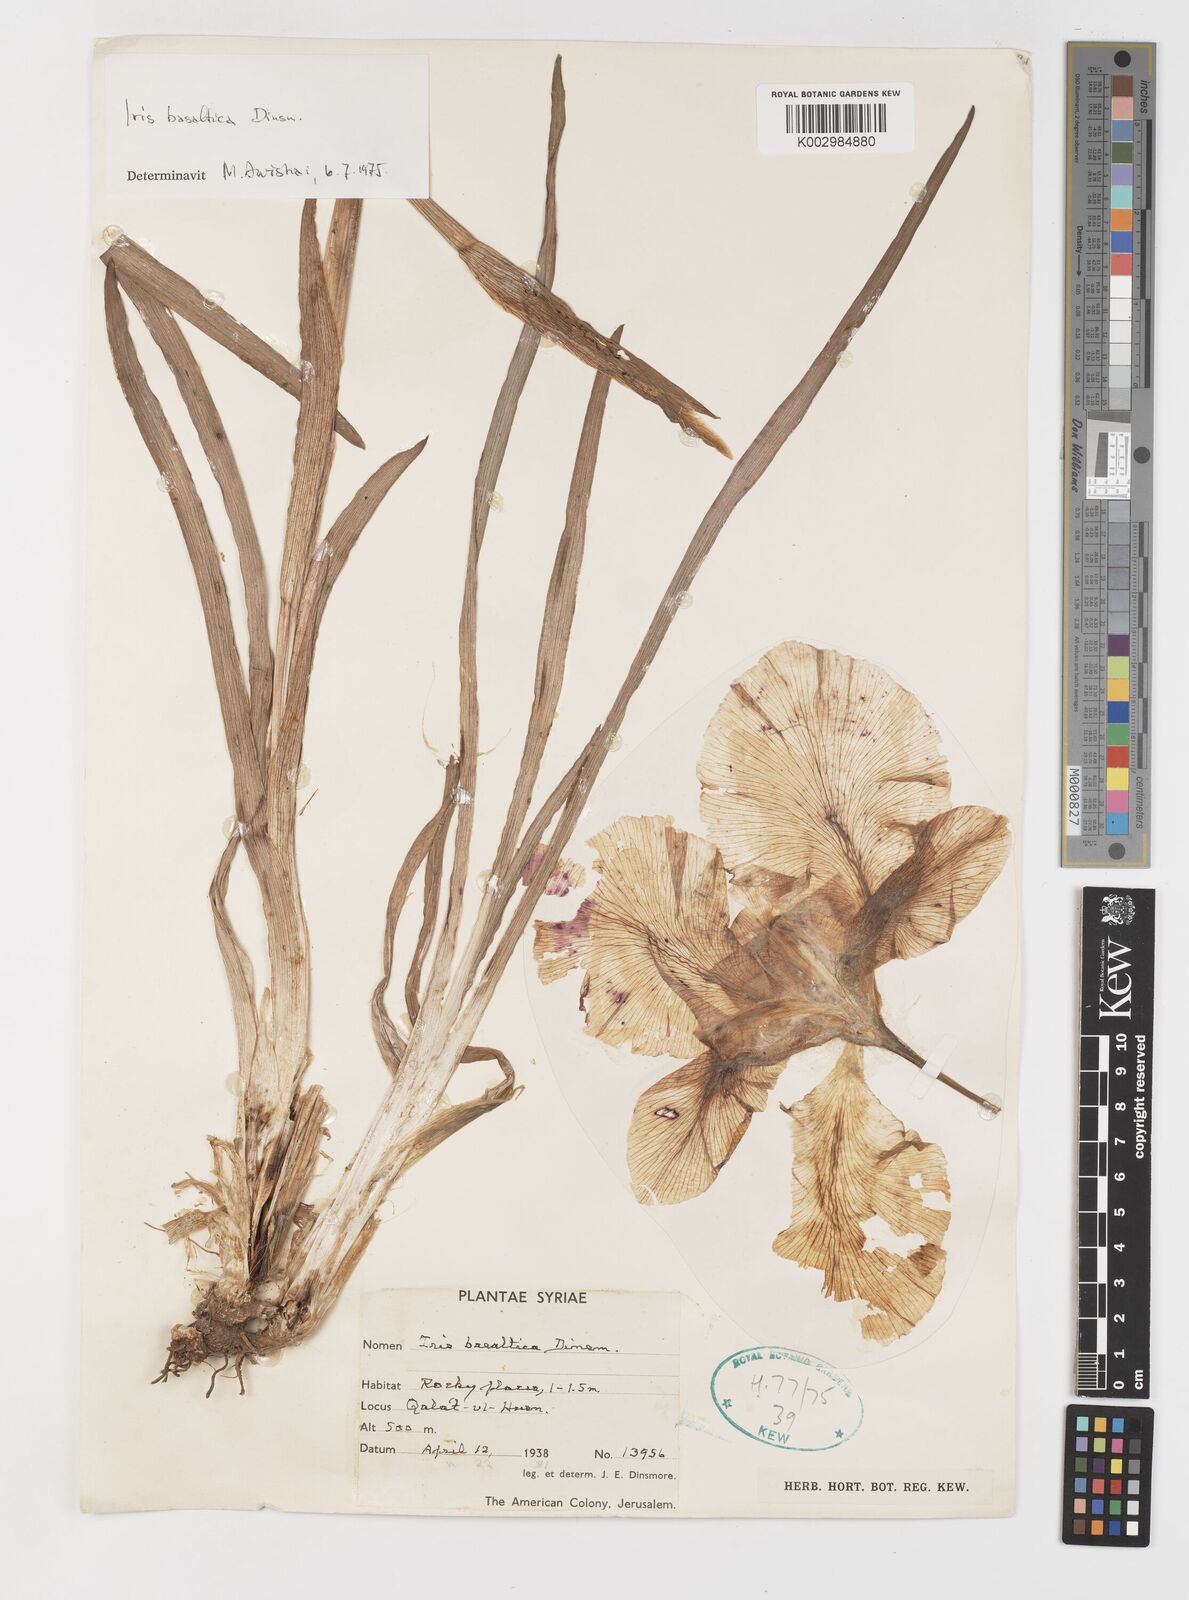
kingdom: Plantae
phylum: Tracheophyta
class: Liliopsida
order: Asparagales
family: Iridaceae
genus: Iris
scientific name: Iris basaltica
